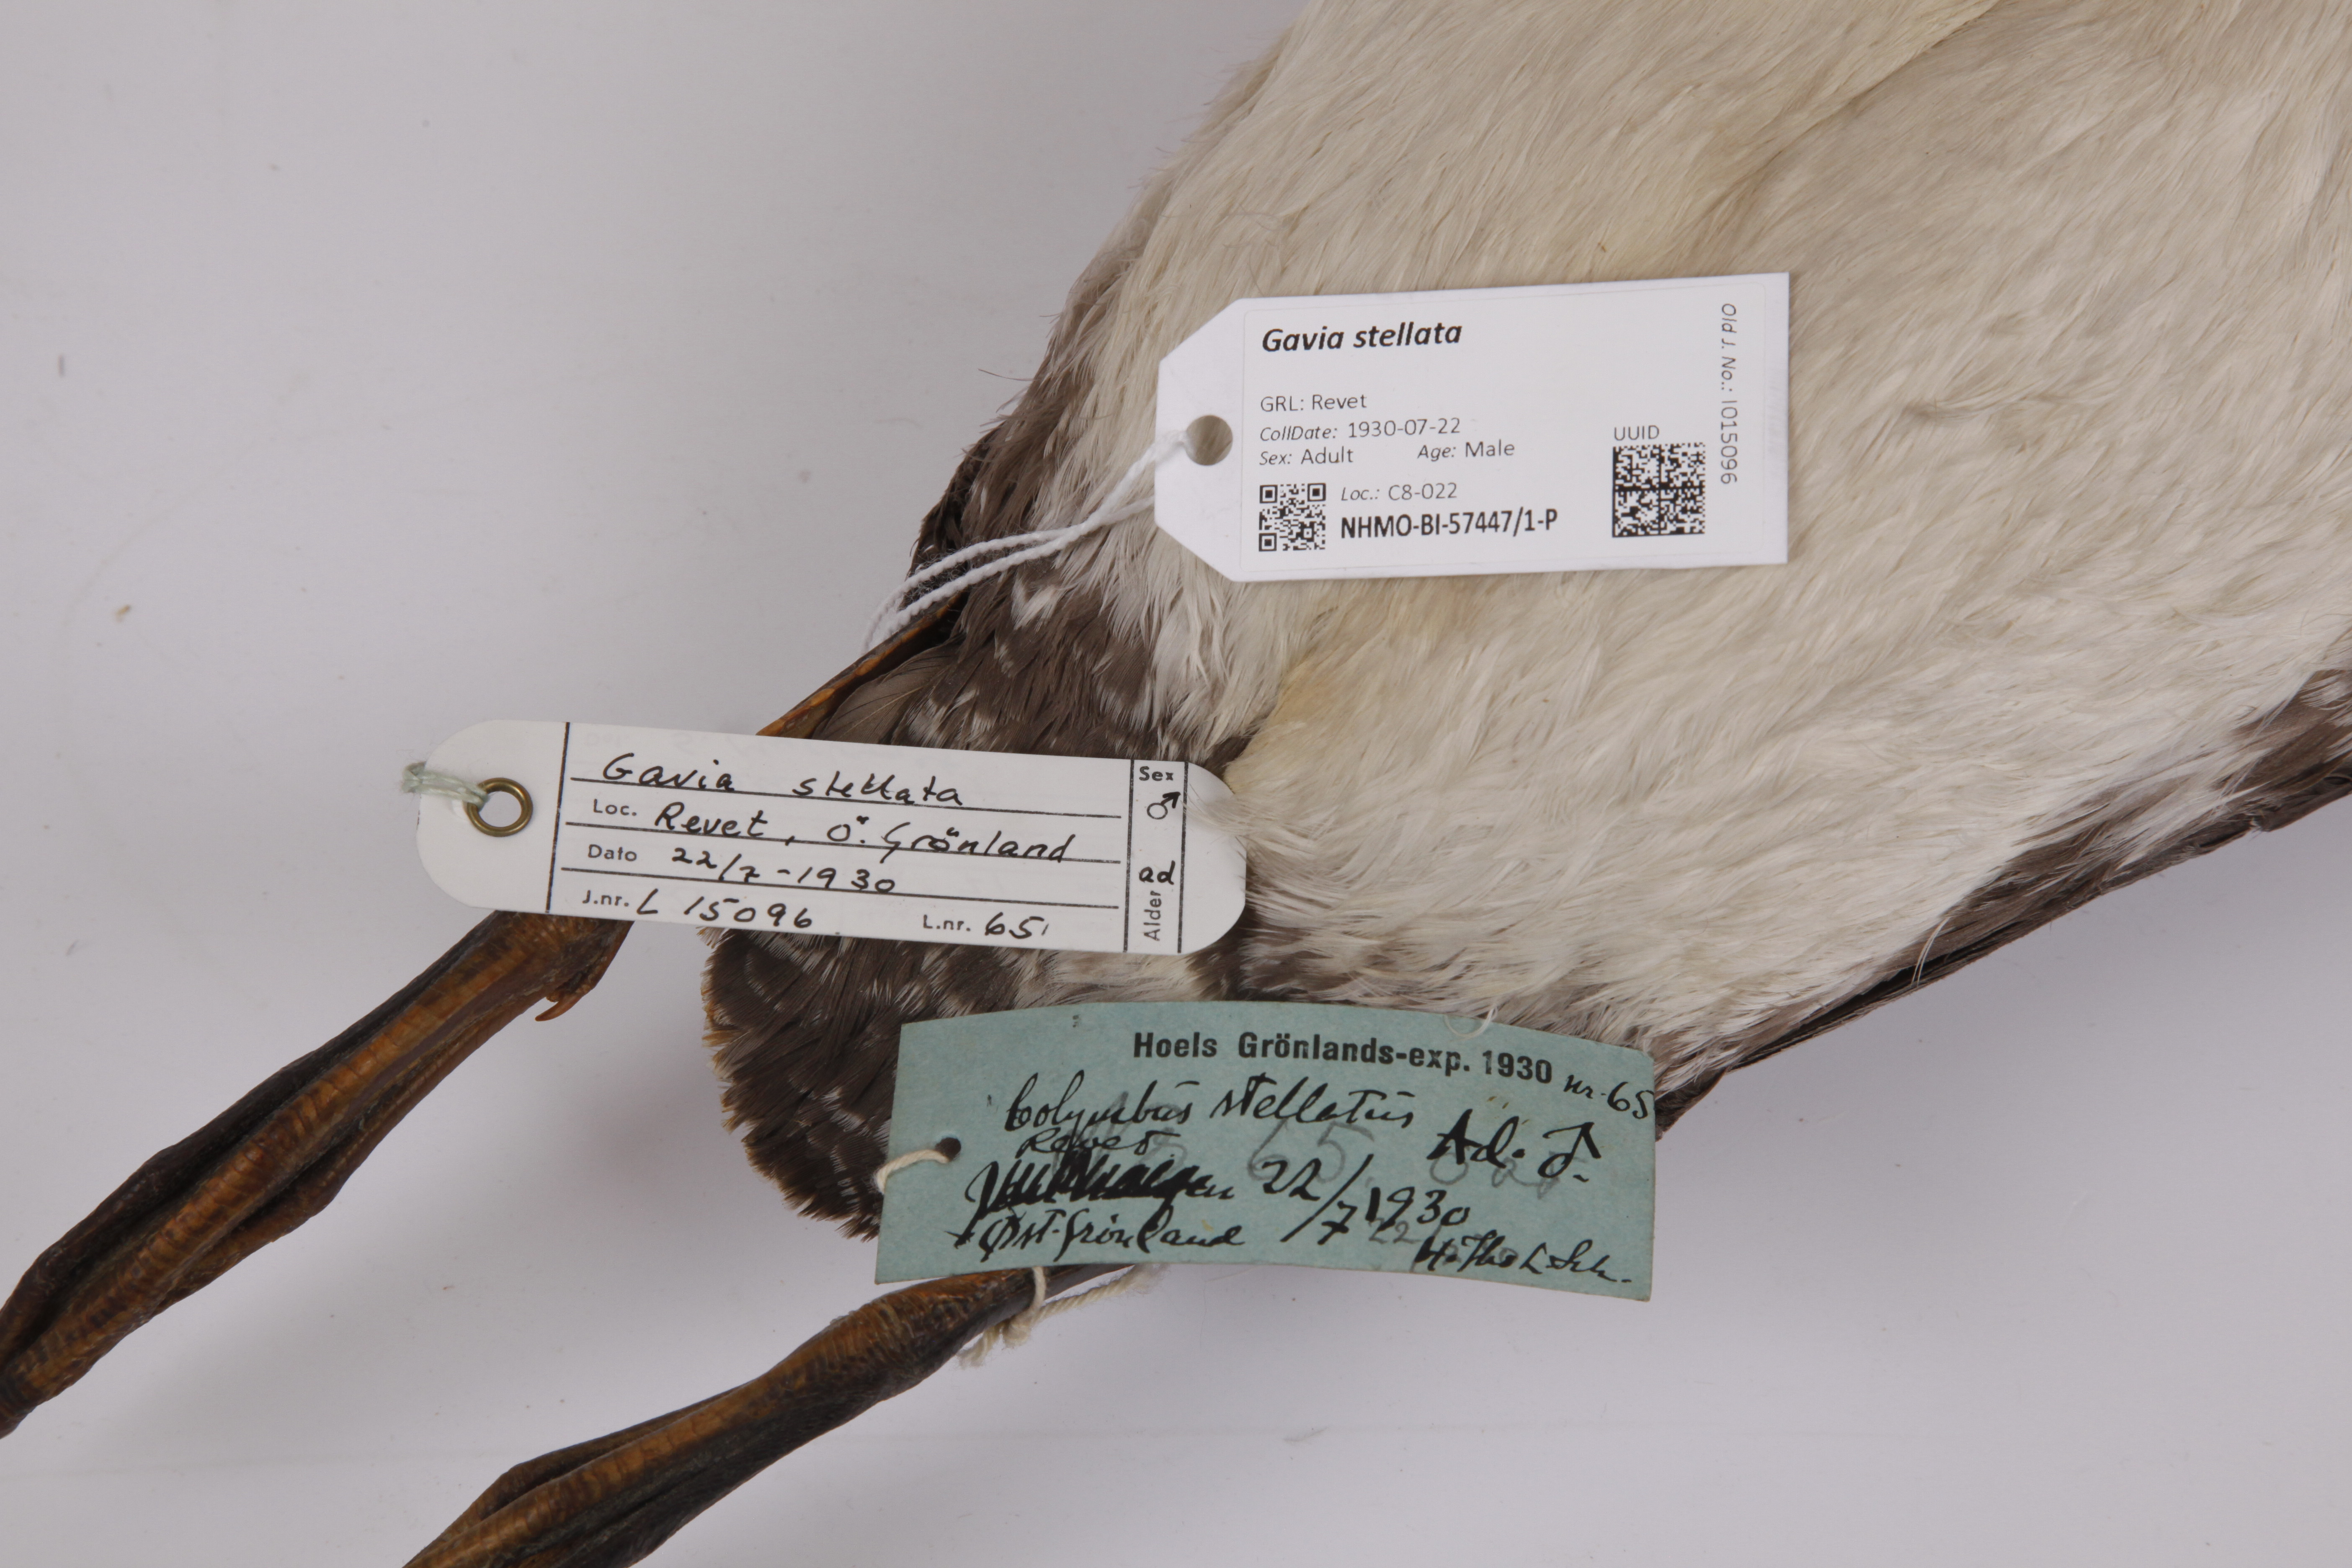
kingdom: Animalia
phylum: Chordata
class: Aves
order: Gaviiformes
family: Gaviidae
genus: Gavia
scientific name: Gavia stellata
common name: Red-throated loon
